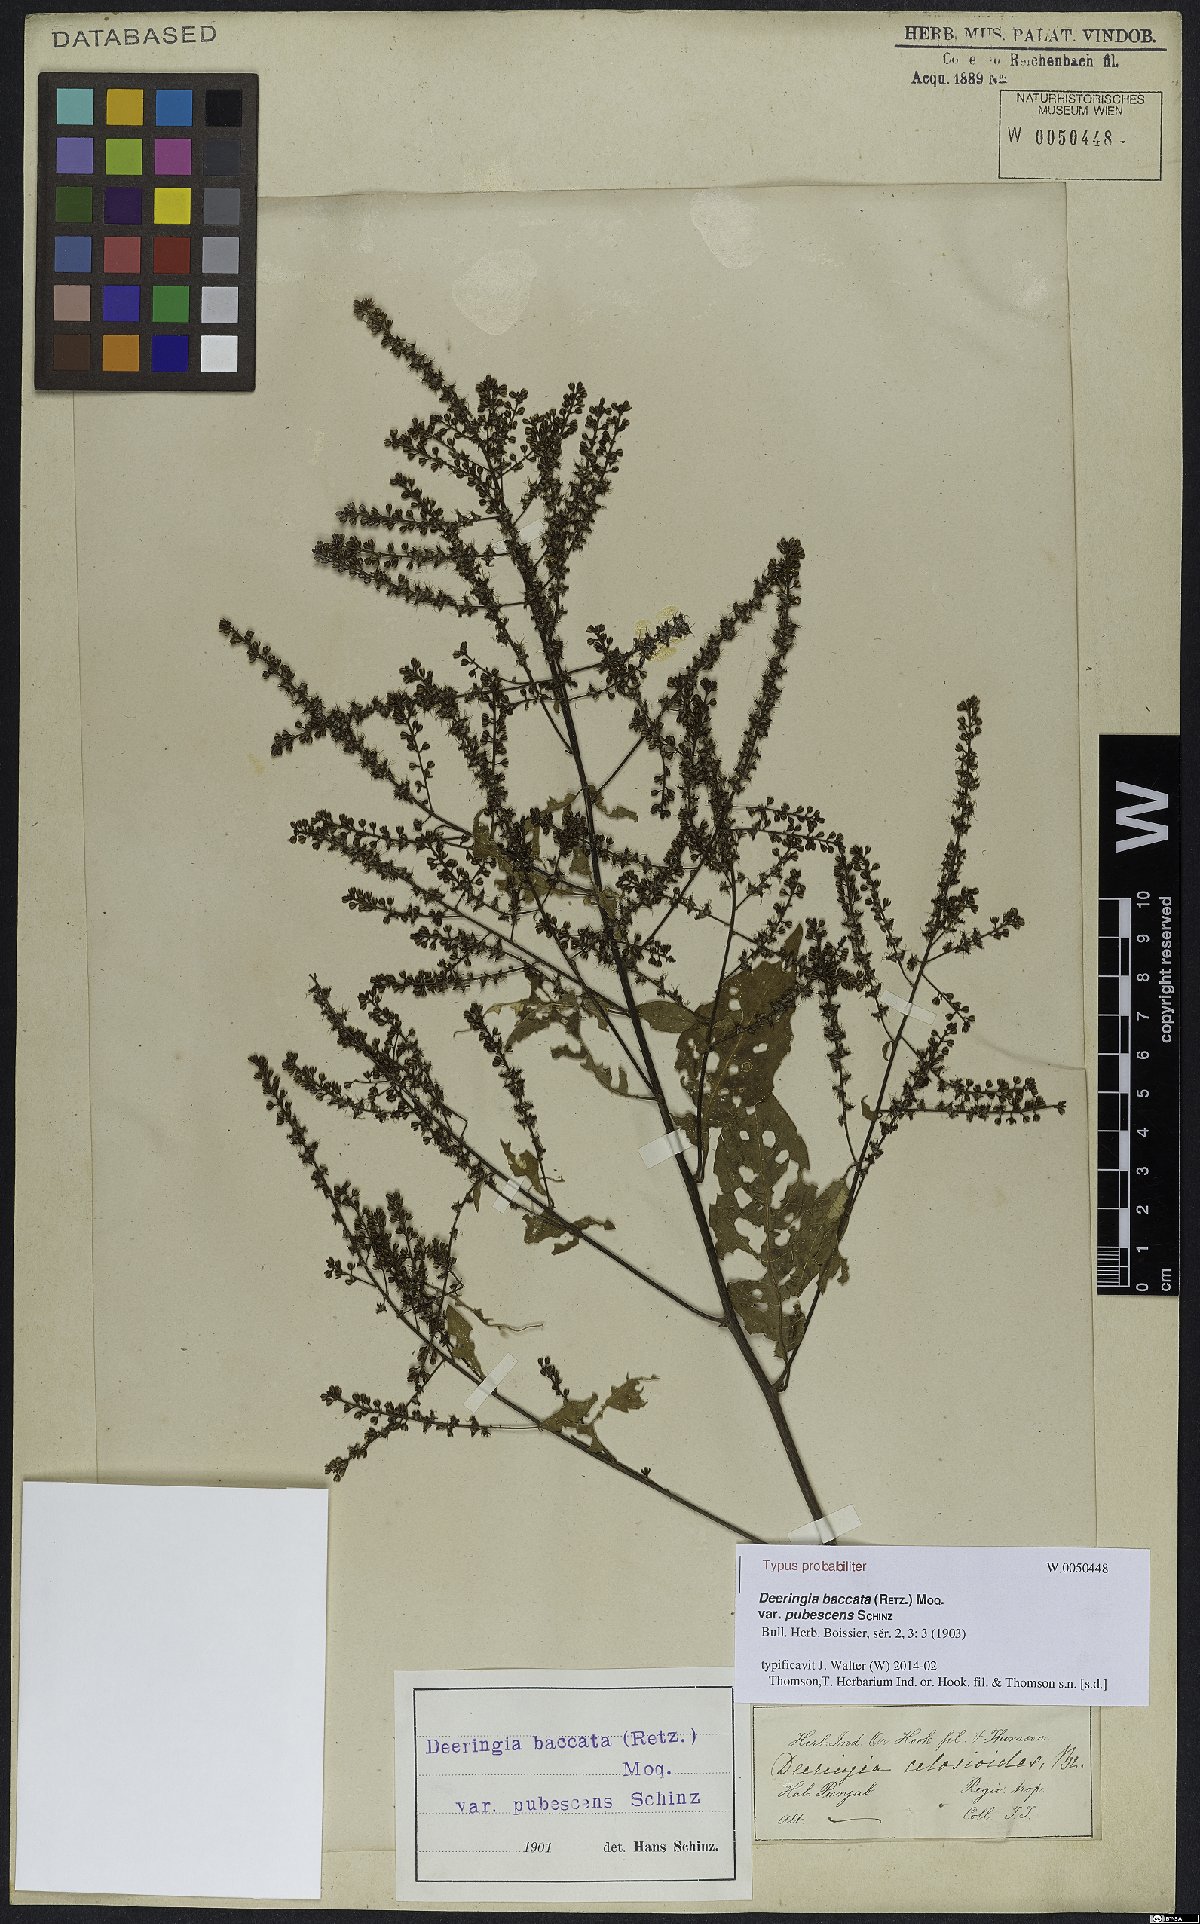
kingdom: Plantae
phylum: Tracheophyta
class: Magnoliopsida
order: Caryophyllales
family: Amaranthaceae
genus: Deeringia
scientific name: Deeringia amaranthoides
